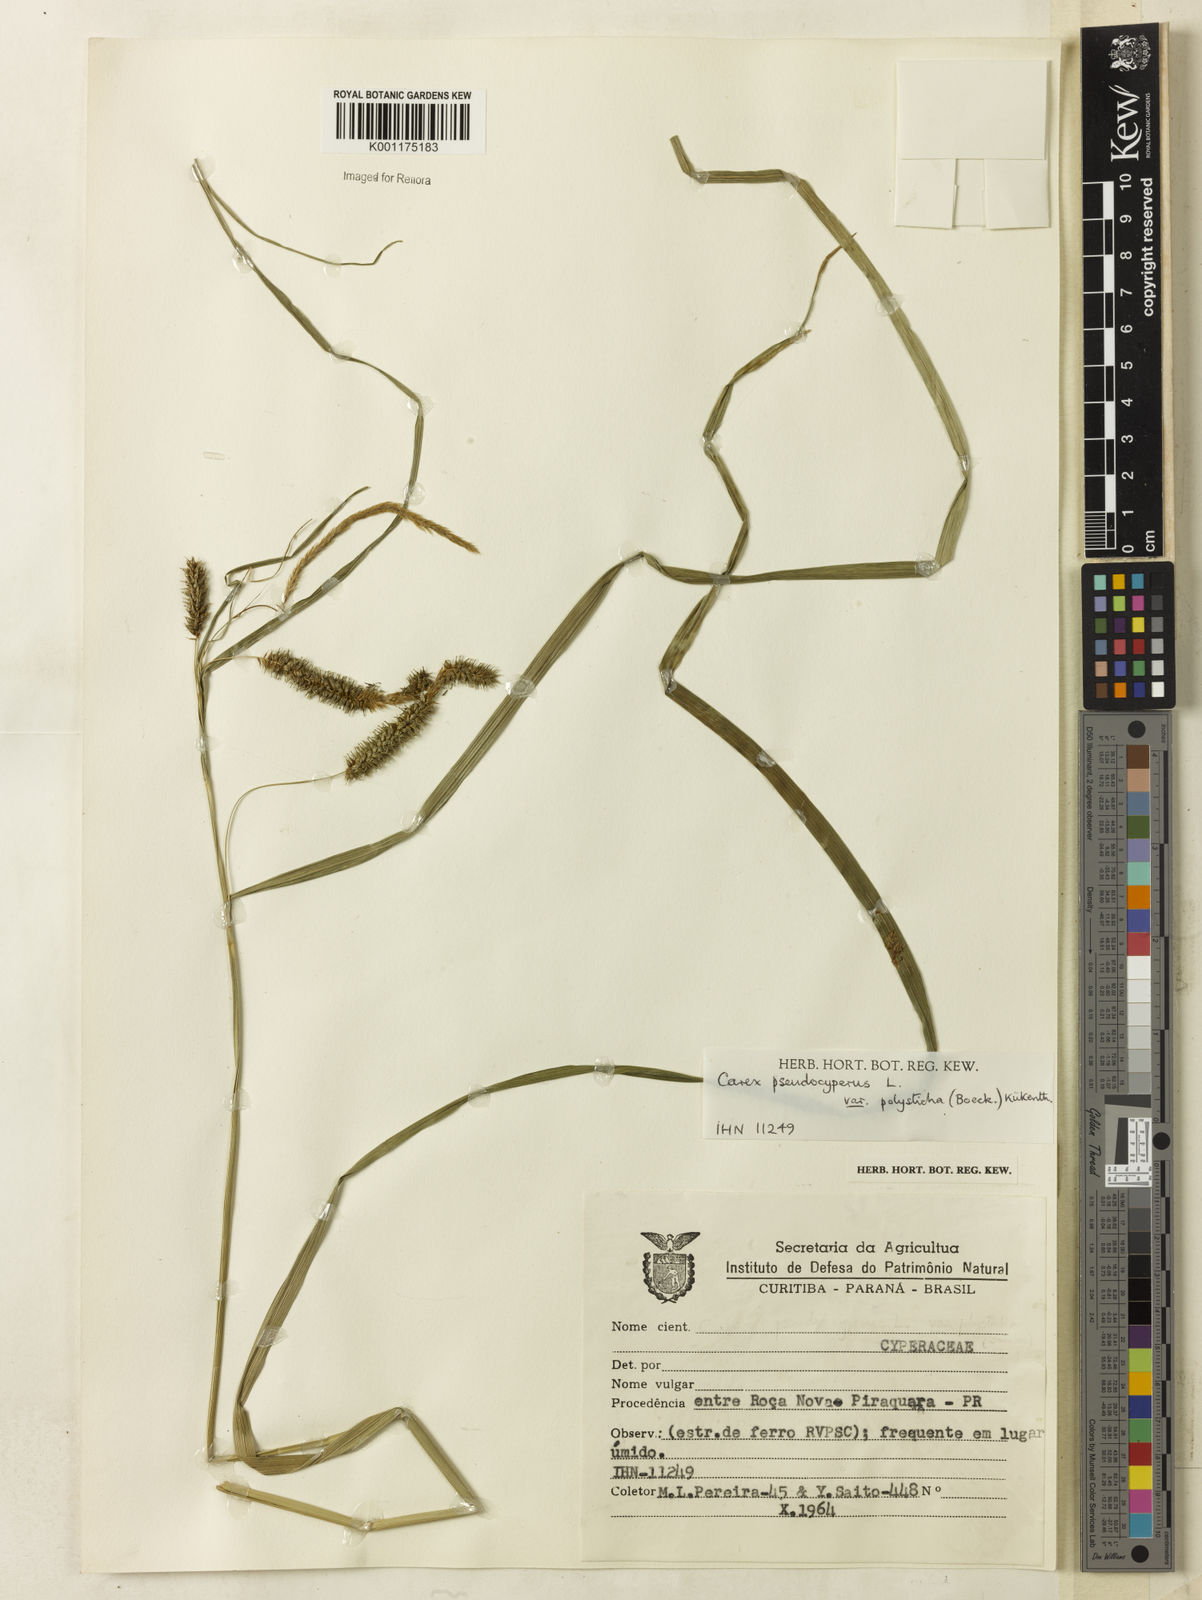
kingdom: Plantae
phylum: Tracheophyta
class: Liliopsida
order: Poales
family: Cyperaceae
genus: Carex
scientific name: Carex polysticha
